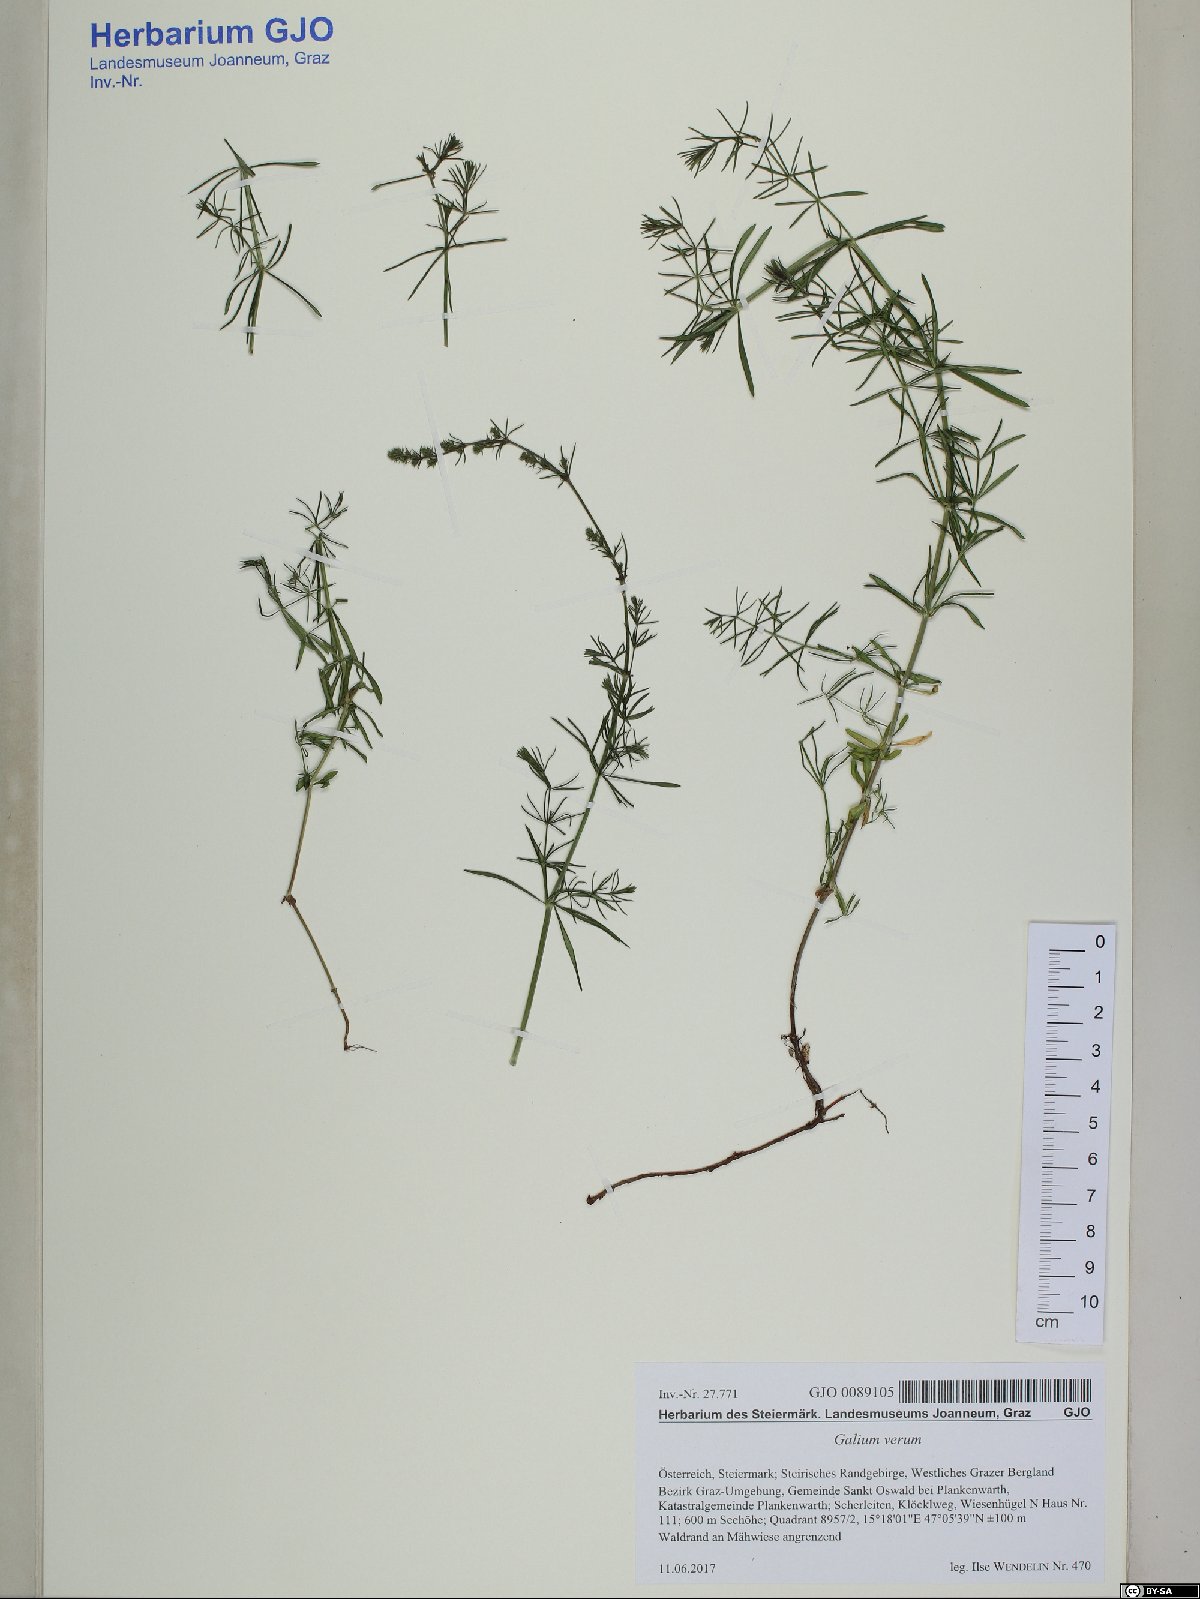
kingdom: Plantae
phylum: Tracheophyta
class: Magnoliopsida
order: Gentianales
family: Rubiaceae
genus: Galium
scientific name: Galium verum
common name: Lady's bedstraw
